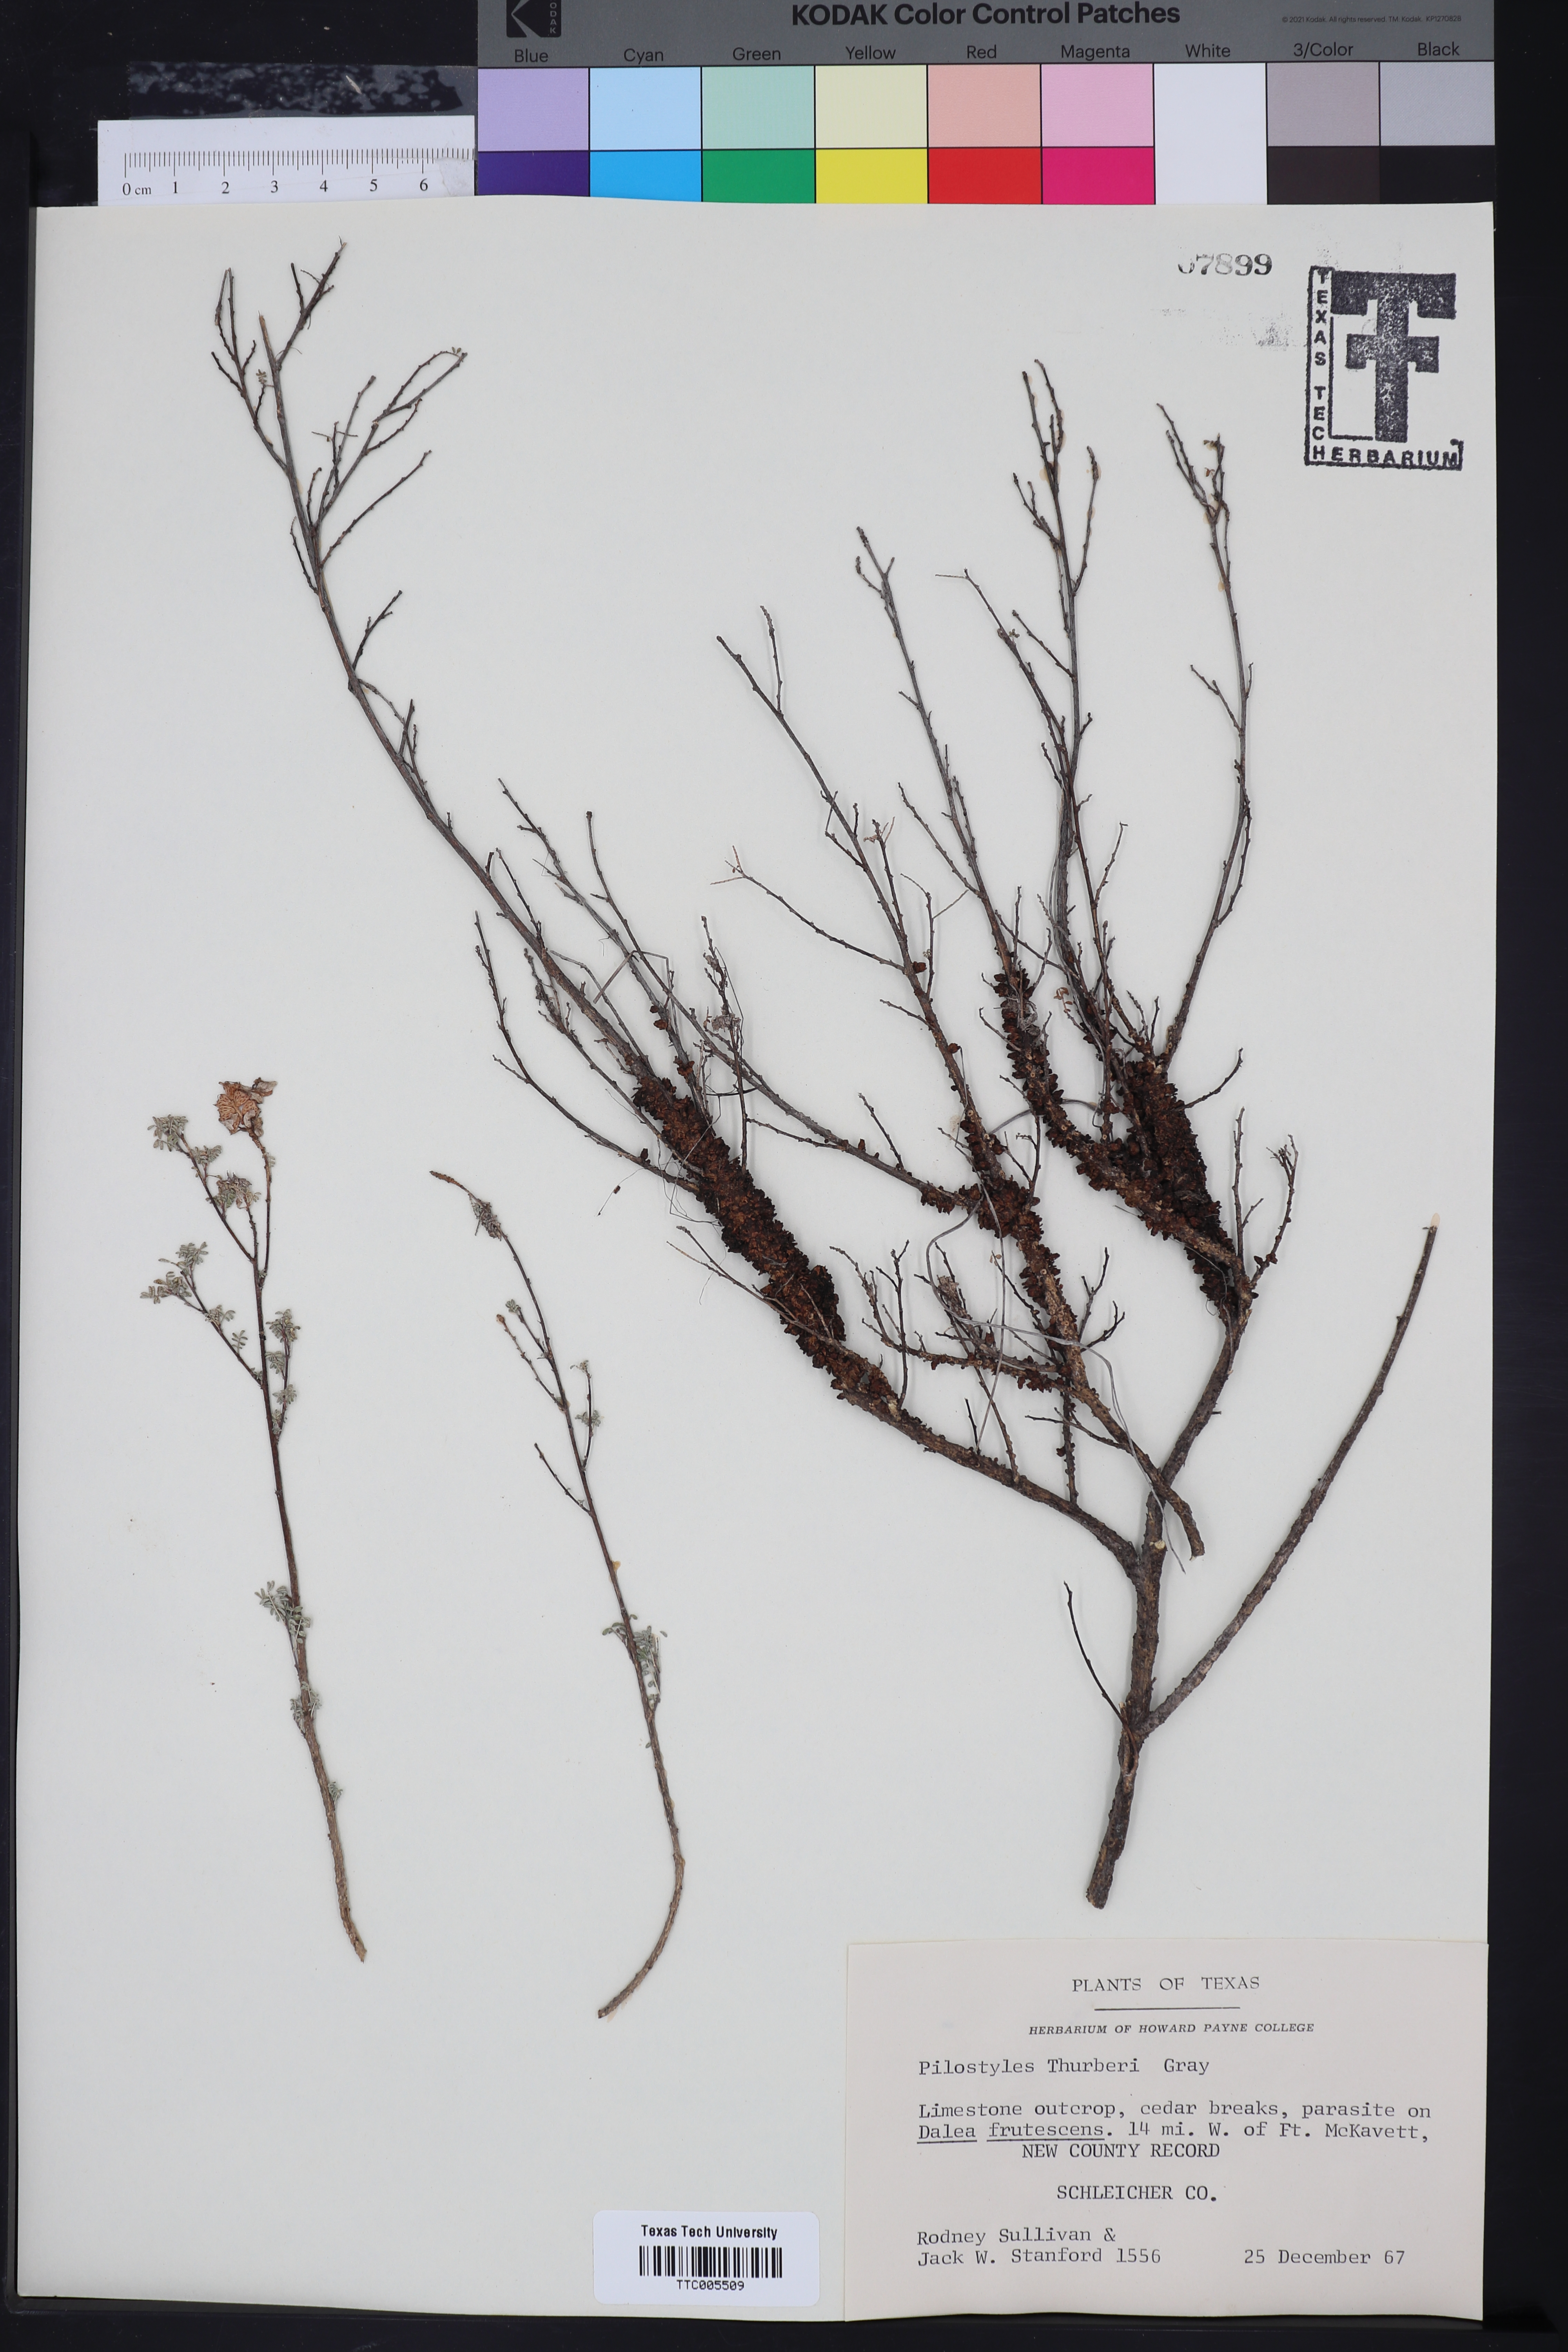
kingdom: Plantae
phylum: Tracheophyta
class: Magnoliopsida
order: Cucurbitales
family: Apodanthaceae
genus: Pilostyles
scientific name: Pilostyles thurberi
